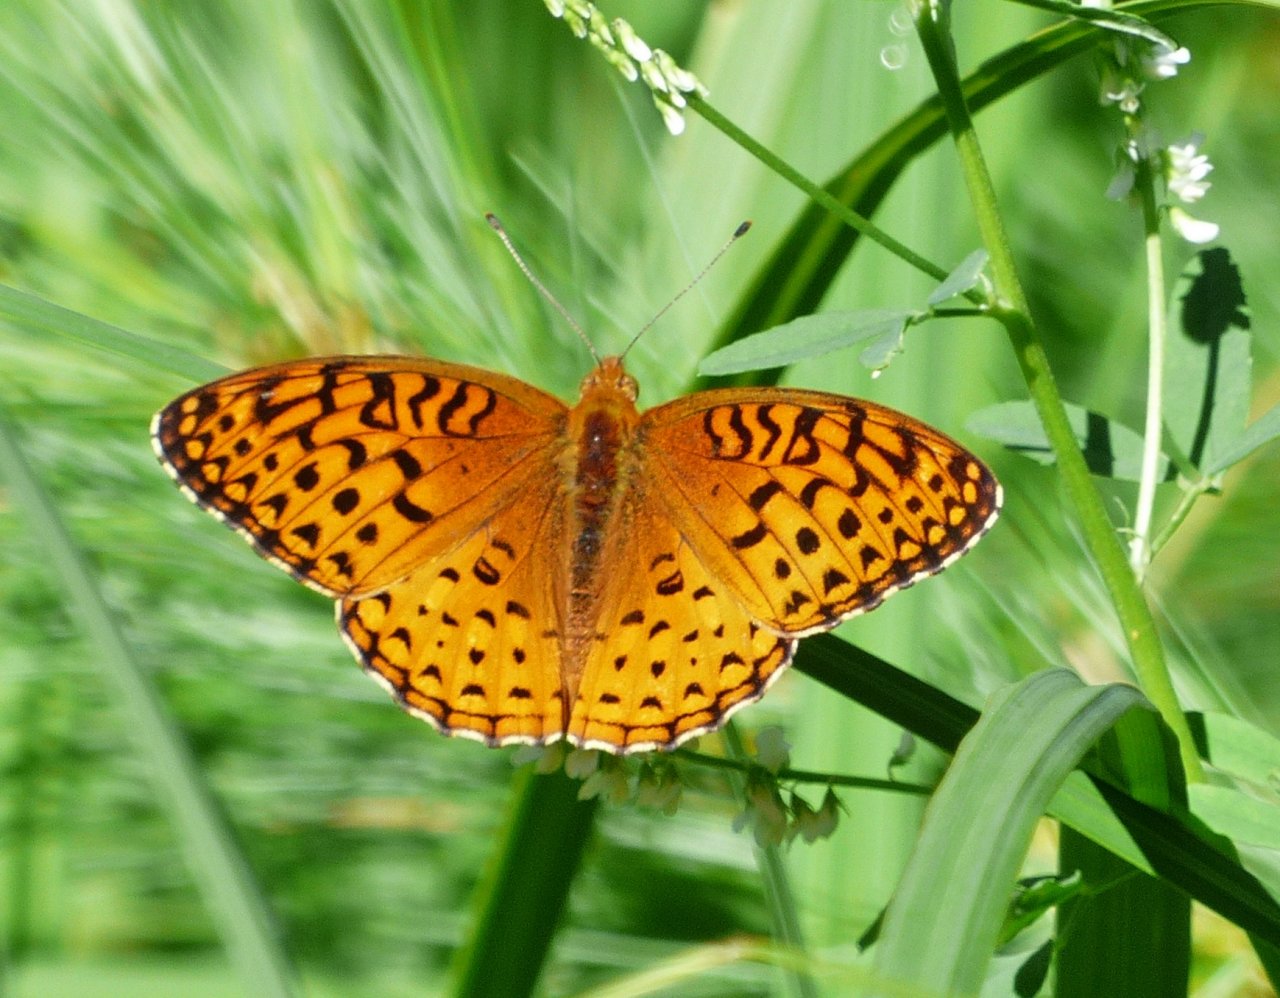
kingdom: Animalia
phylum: Arthropoda
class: Insecta
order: Lepidoptera
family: Nymphalidae
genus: Speyeria
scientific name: Speyeria aphrodite
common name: Aphrodite Fritillary
